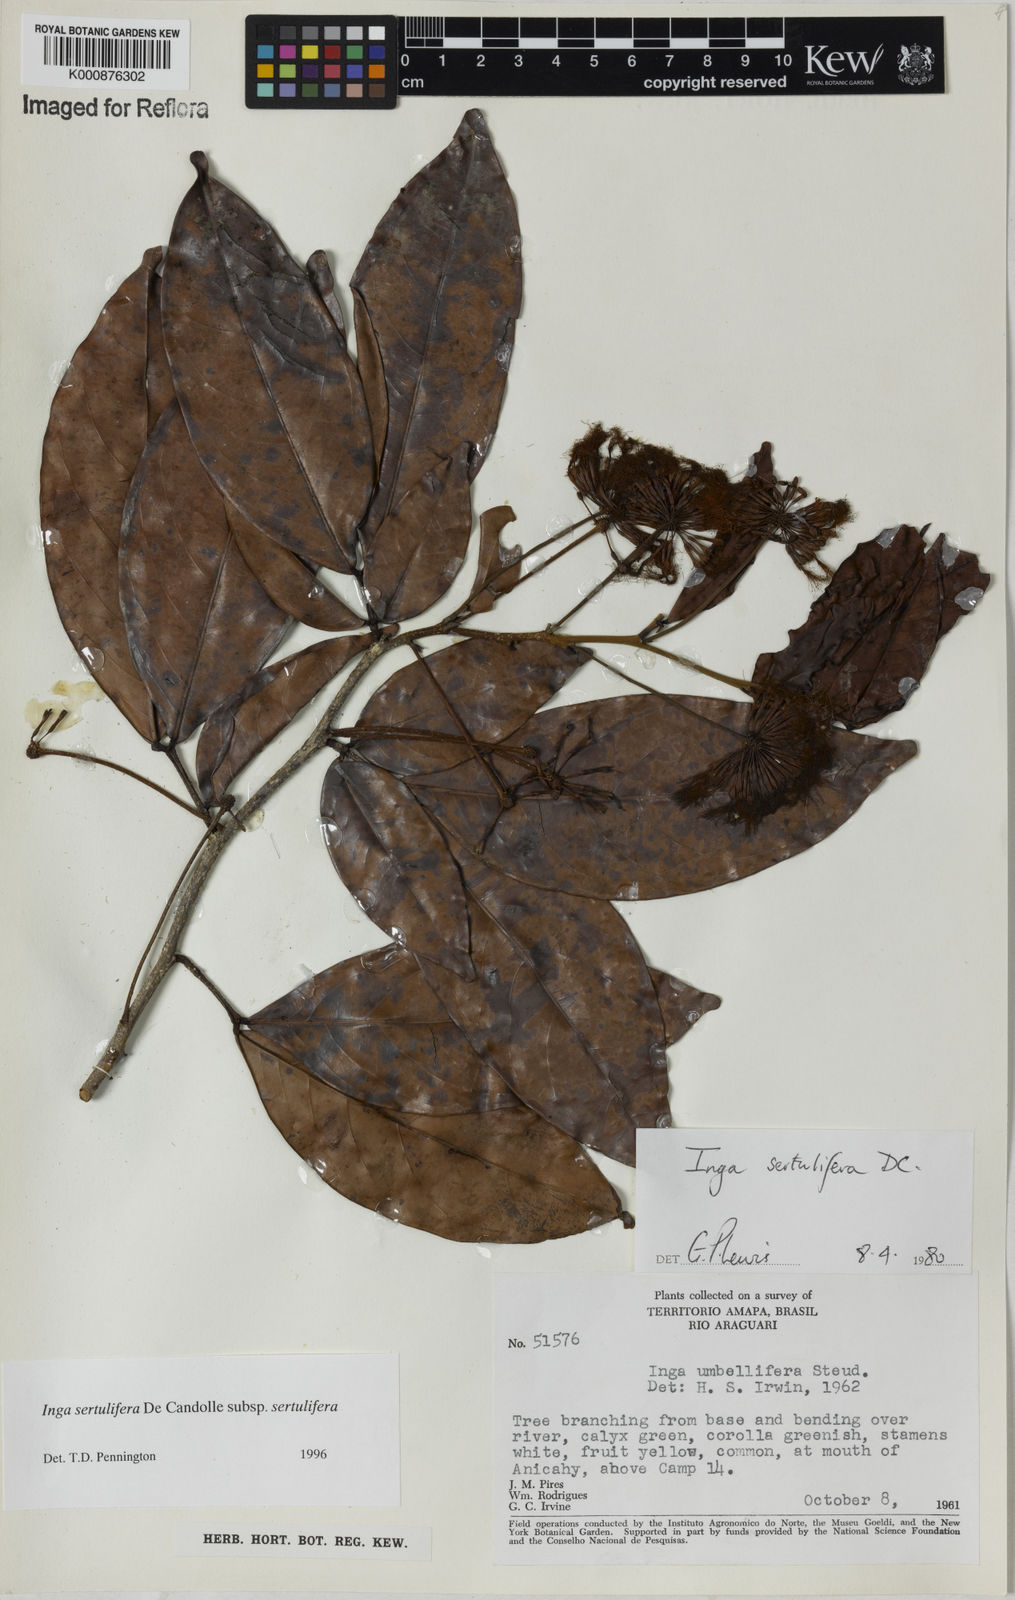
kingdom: Plantae
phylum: Tracheophyta
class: Magnoliopsida
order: Fabales
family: Fabaceae
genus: Inga
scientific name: Inga sertulifera
